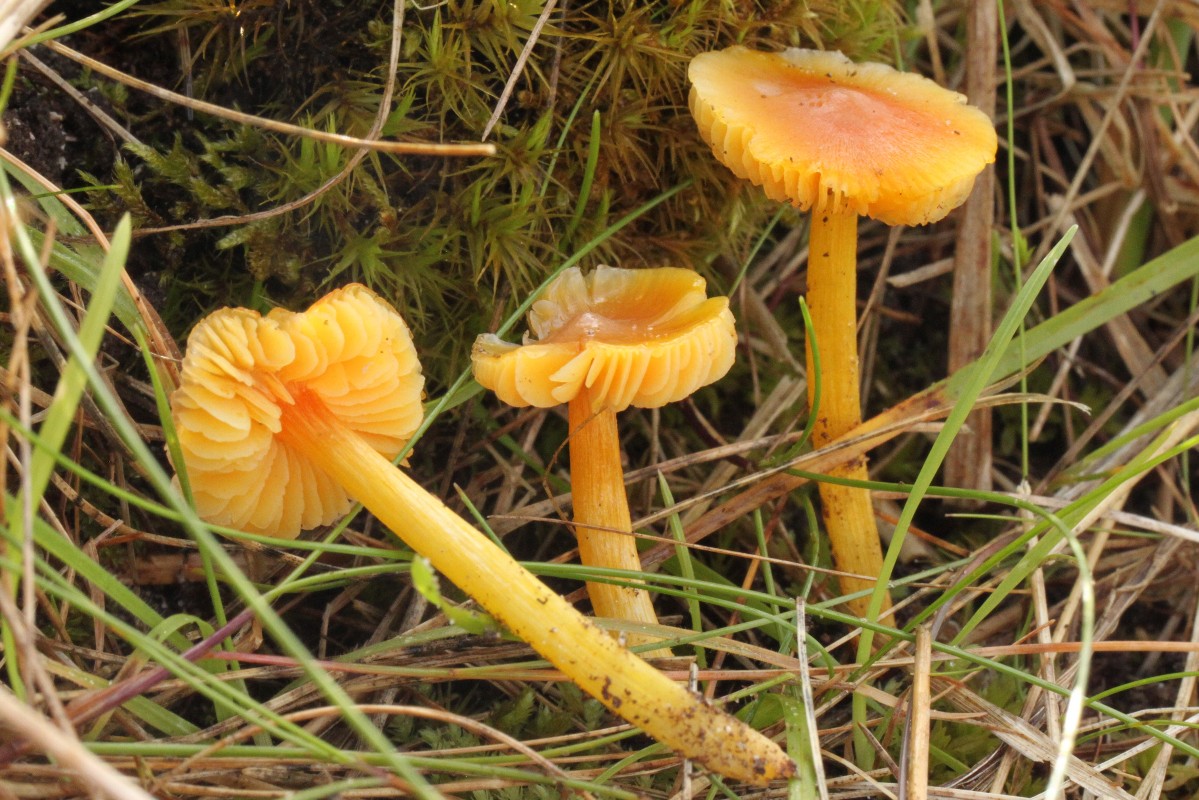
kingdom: Fungi
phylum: Basidiomycota
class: Agaricomycetes
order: Agaricales
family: Hygrophoraceae
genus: Hygrocybe
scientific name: Hygrocybe acutoconica
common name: spidspuklet vokshat
